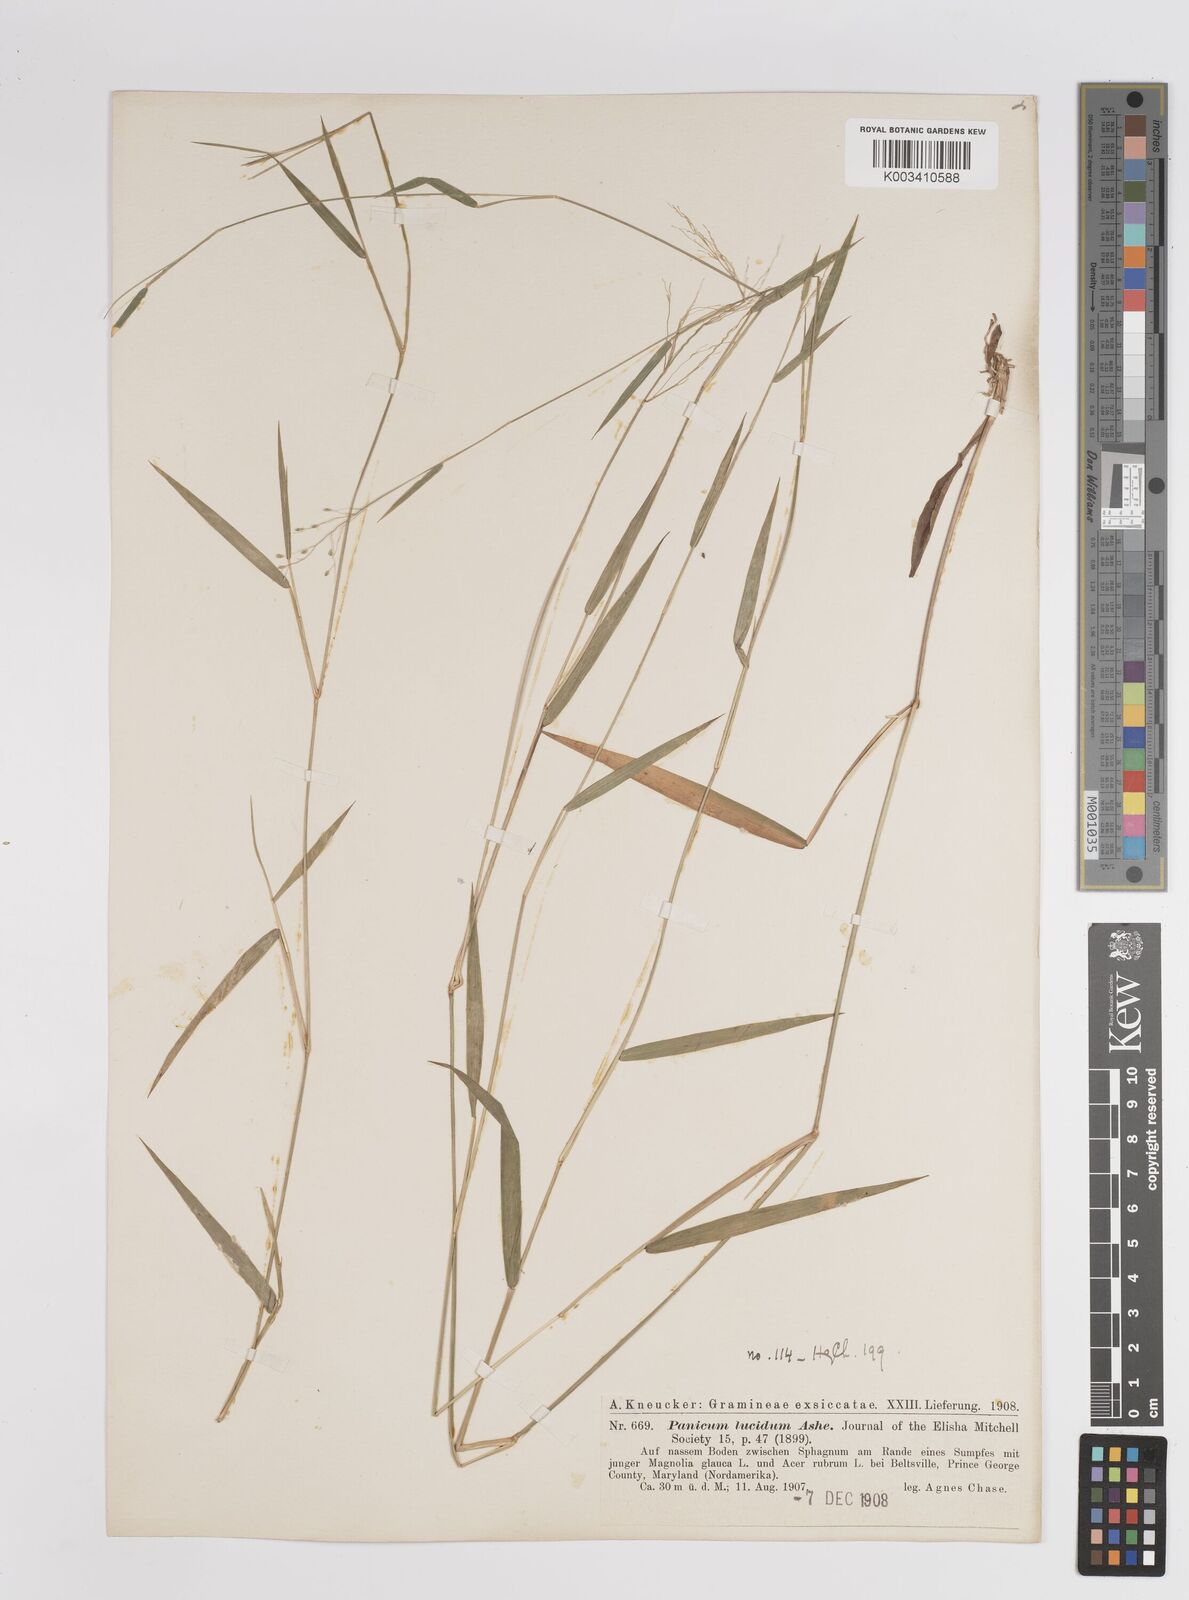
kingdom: Plantae
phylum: Tracheophyta
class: Liliopsida
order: Poales
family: Poaceae
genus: Dichanthelium
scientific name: Dichanthelium lucidum
